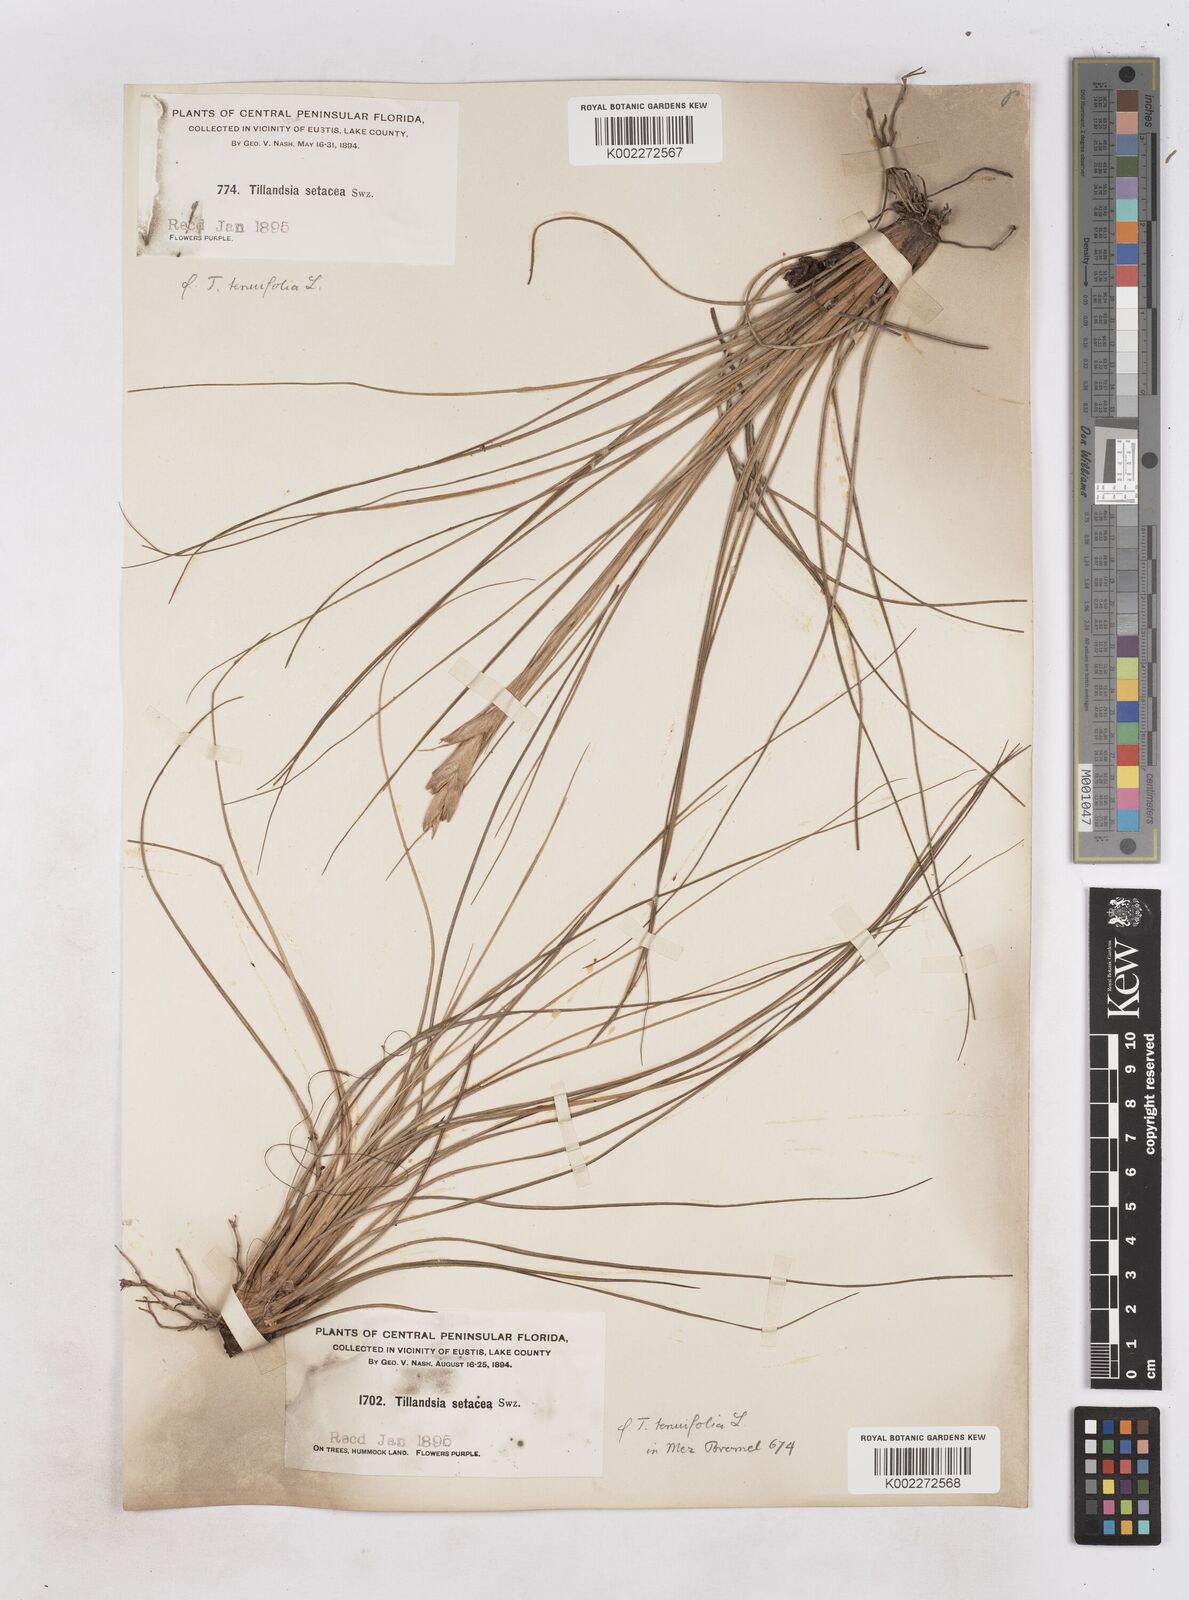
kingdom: Plantae
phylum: Tracheophyta
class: Liliopsida
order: Poales
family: Bromeliaceae
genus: Tillandsia
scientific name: Tillandsia
